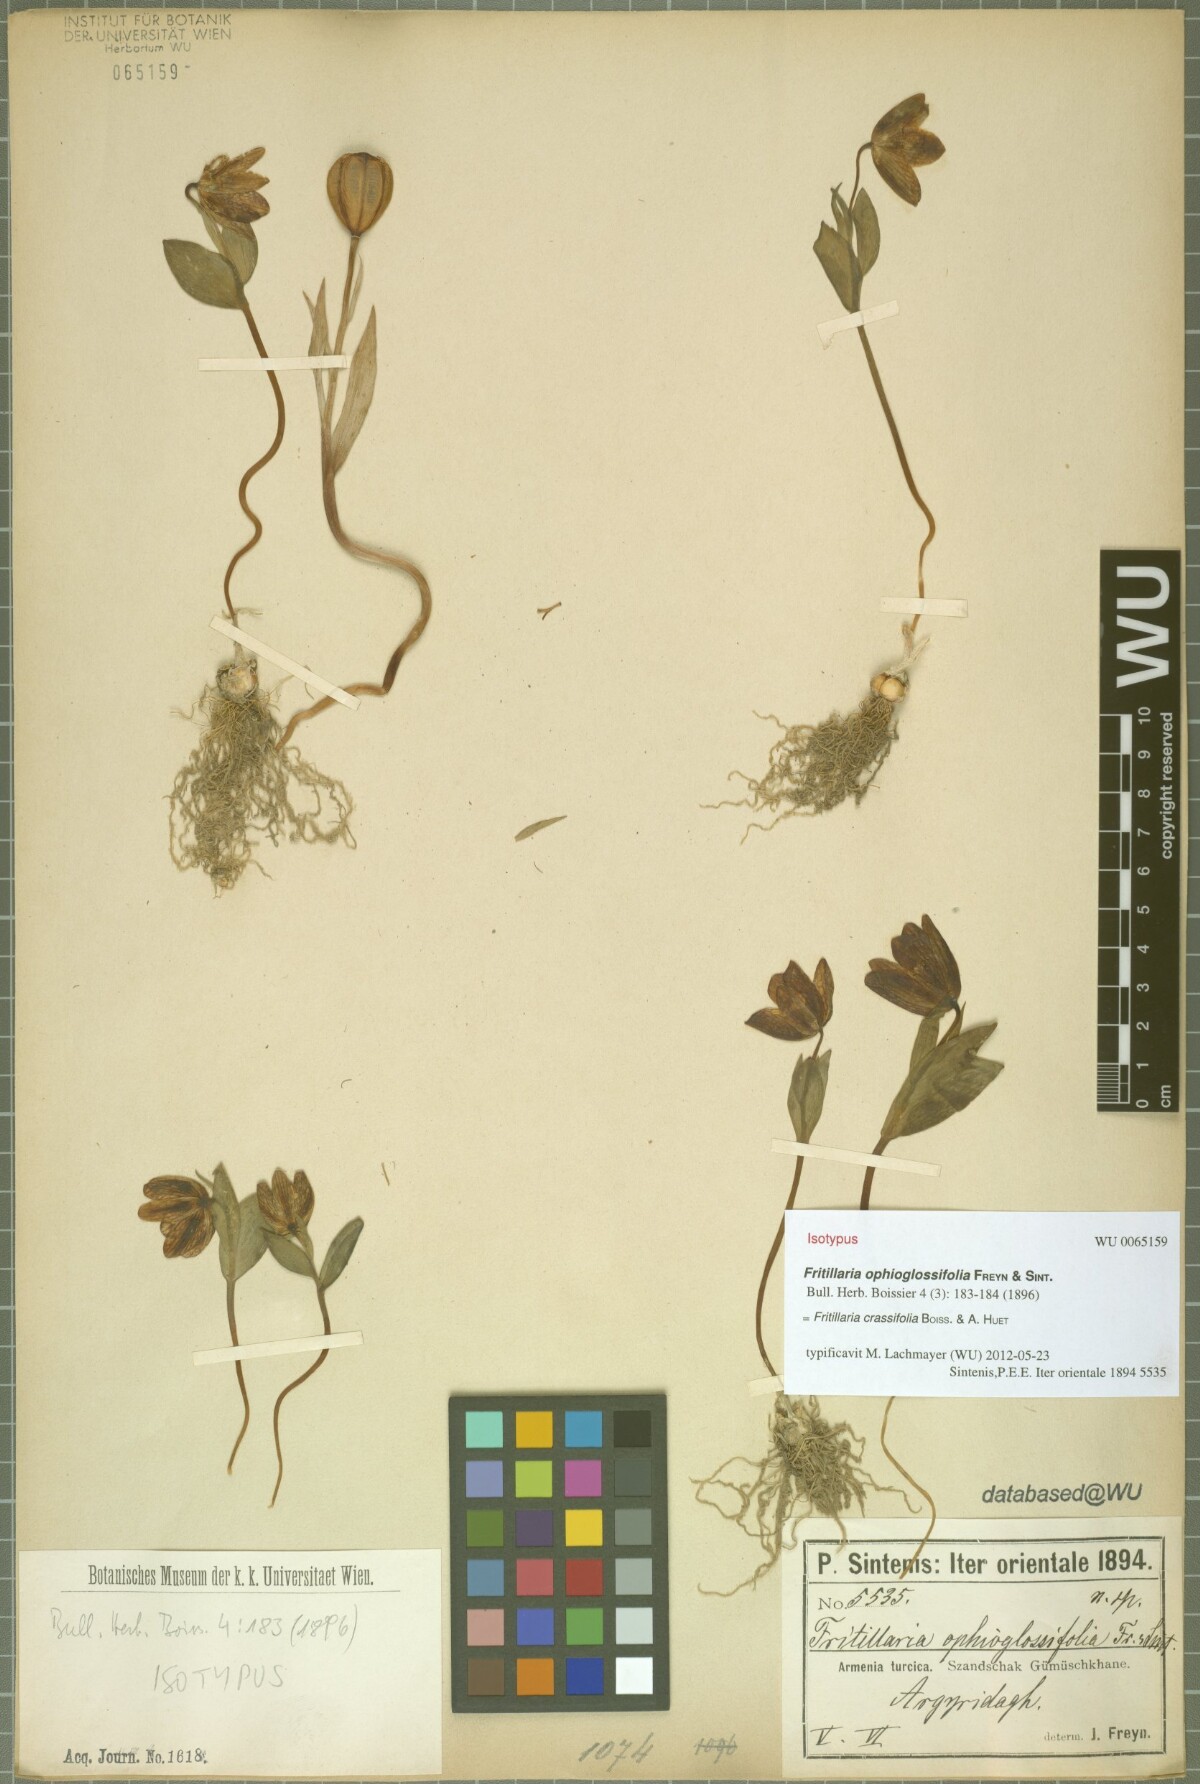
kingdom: Plantae
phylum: Tracheophyta
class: Liliopsida
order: Liliales
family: Liliaceae
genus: Fritillaria
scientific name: Fritillaria crassifolia
